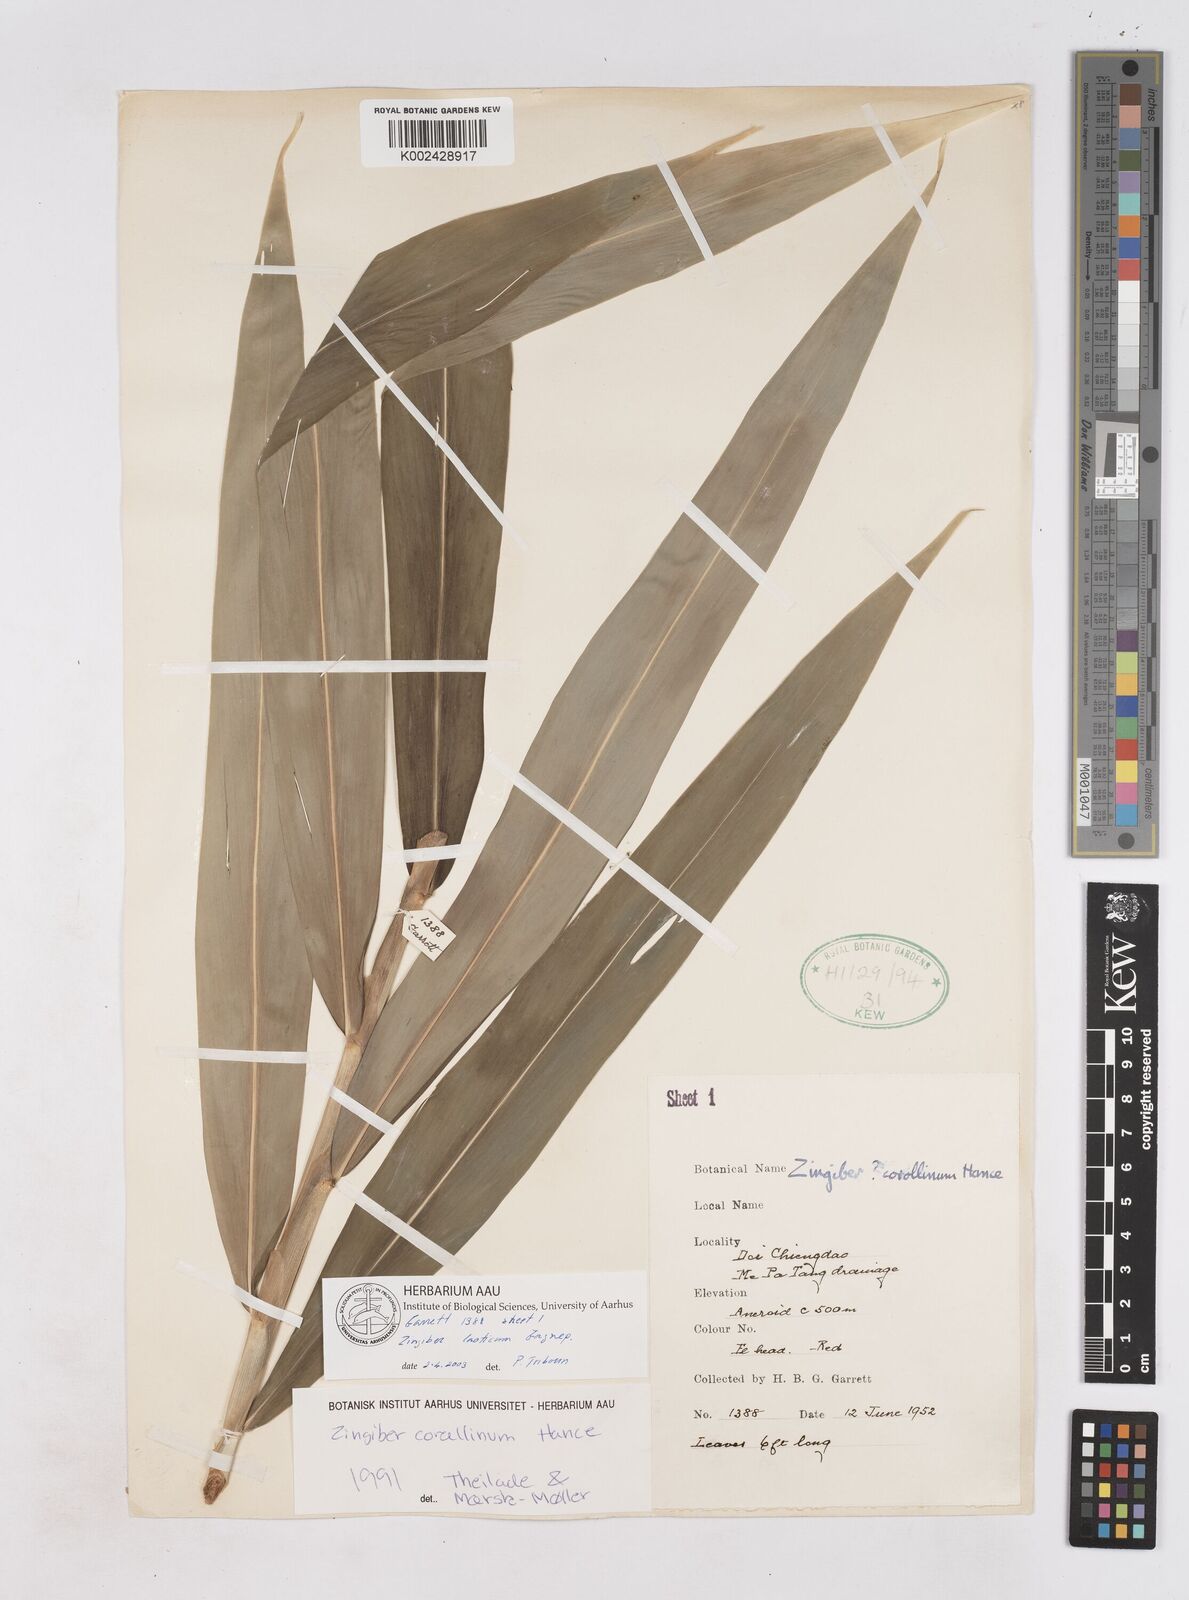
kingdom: Plantae
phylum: Tracheophyta
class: Liliopsida
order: Zingiberales
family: Zingiberaceae
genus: Zingiber
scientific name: Zingiber laoticum
